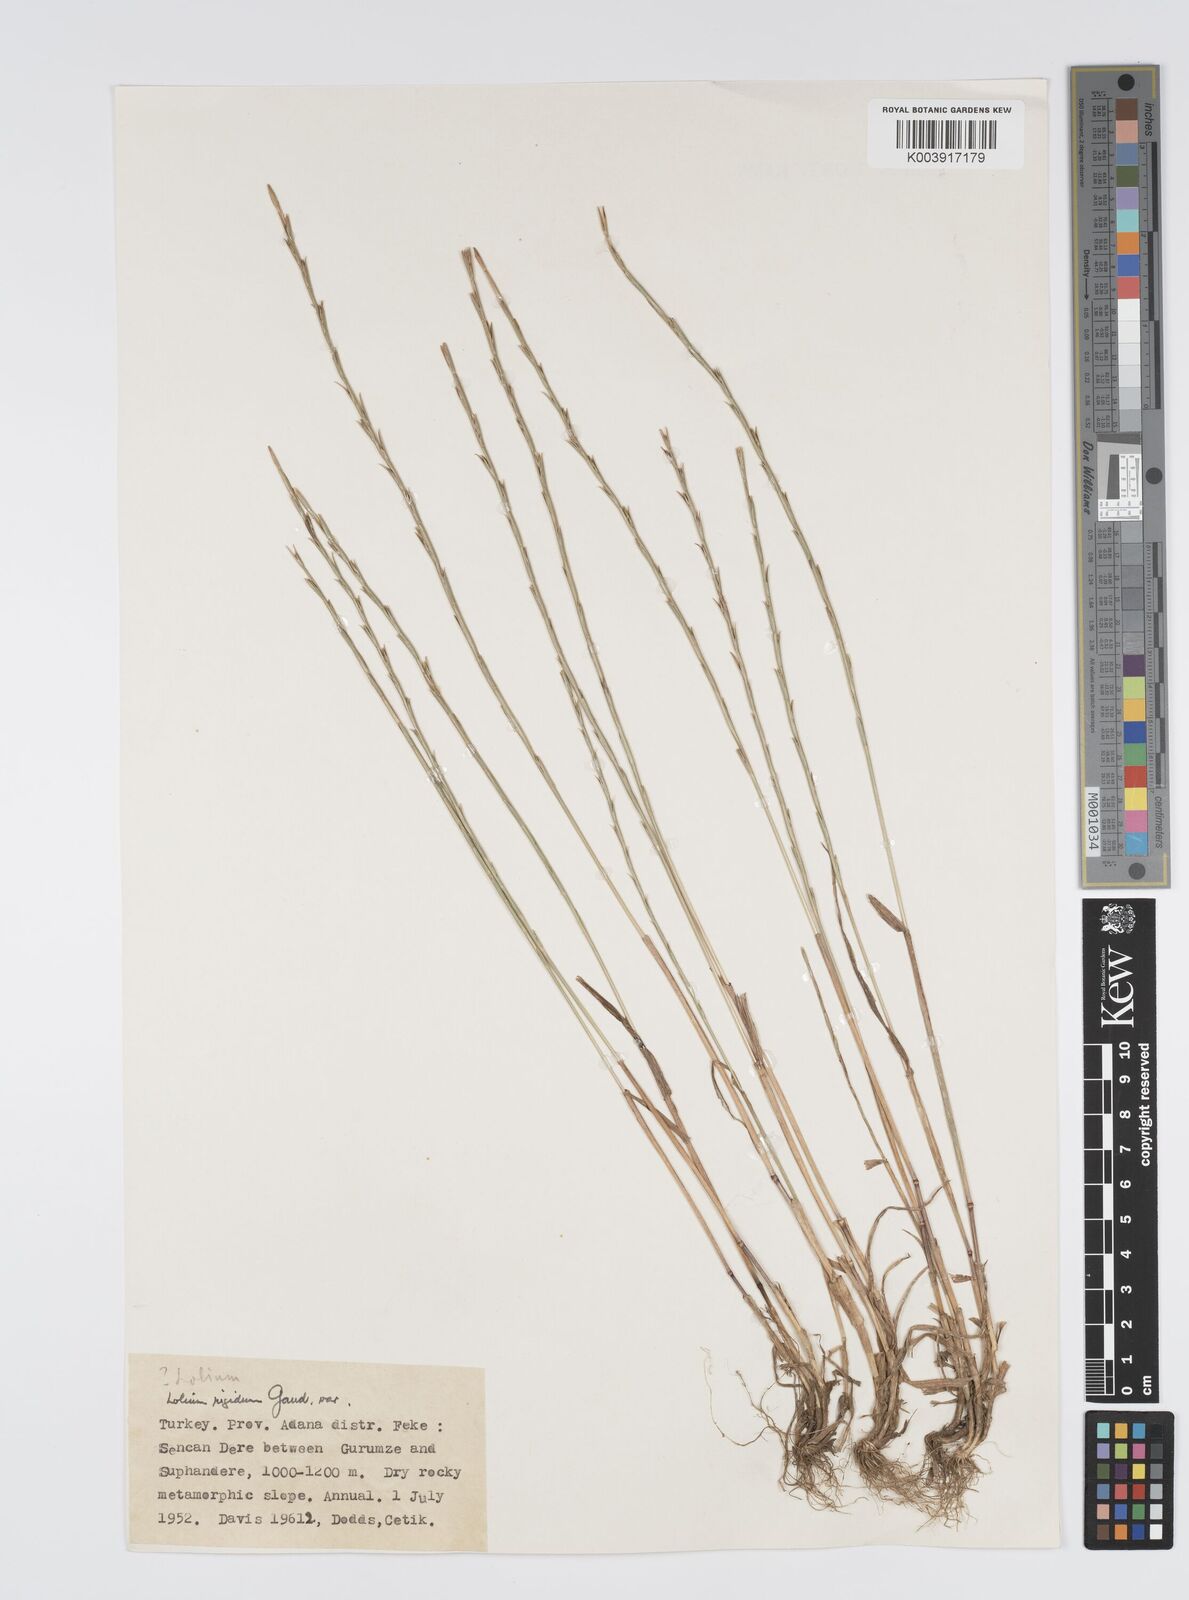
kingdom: Plantae
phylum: Tracheophyta
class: Liliopsida
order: Poales
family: Poaceae
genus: Lolium
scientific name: Lolium rigidum
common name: Wimmera ryegrass
